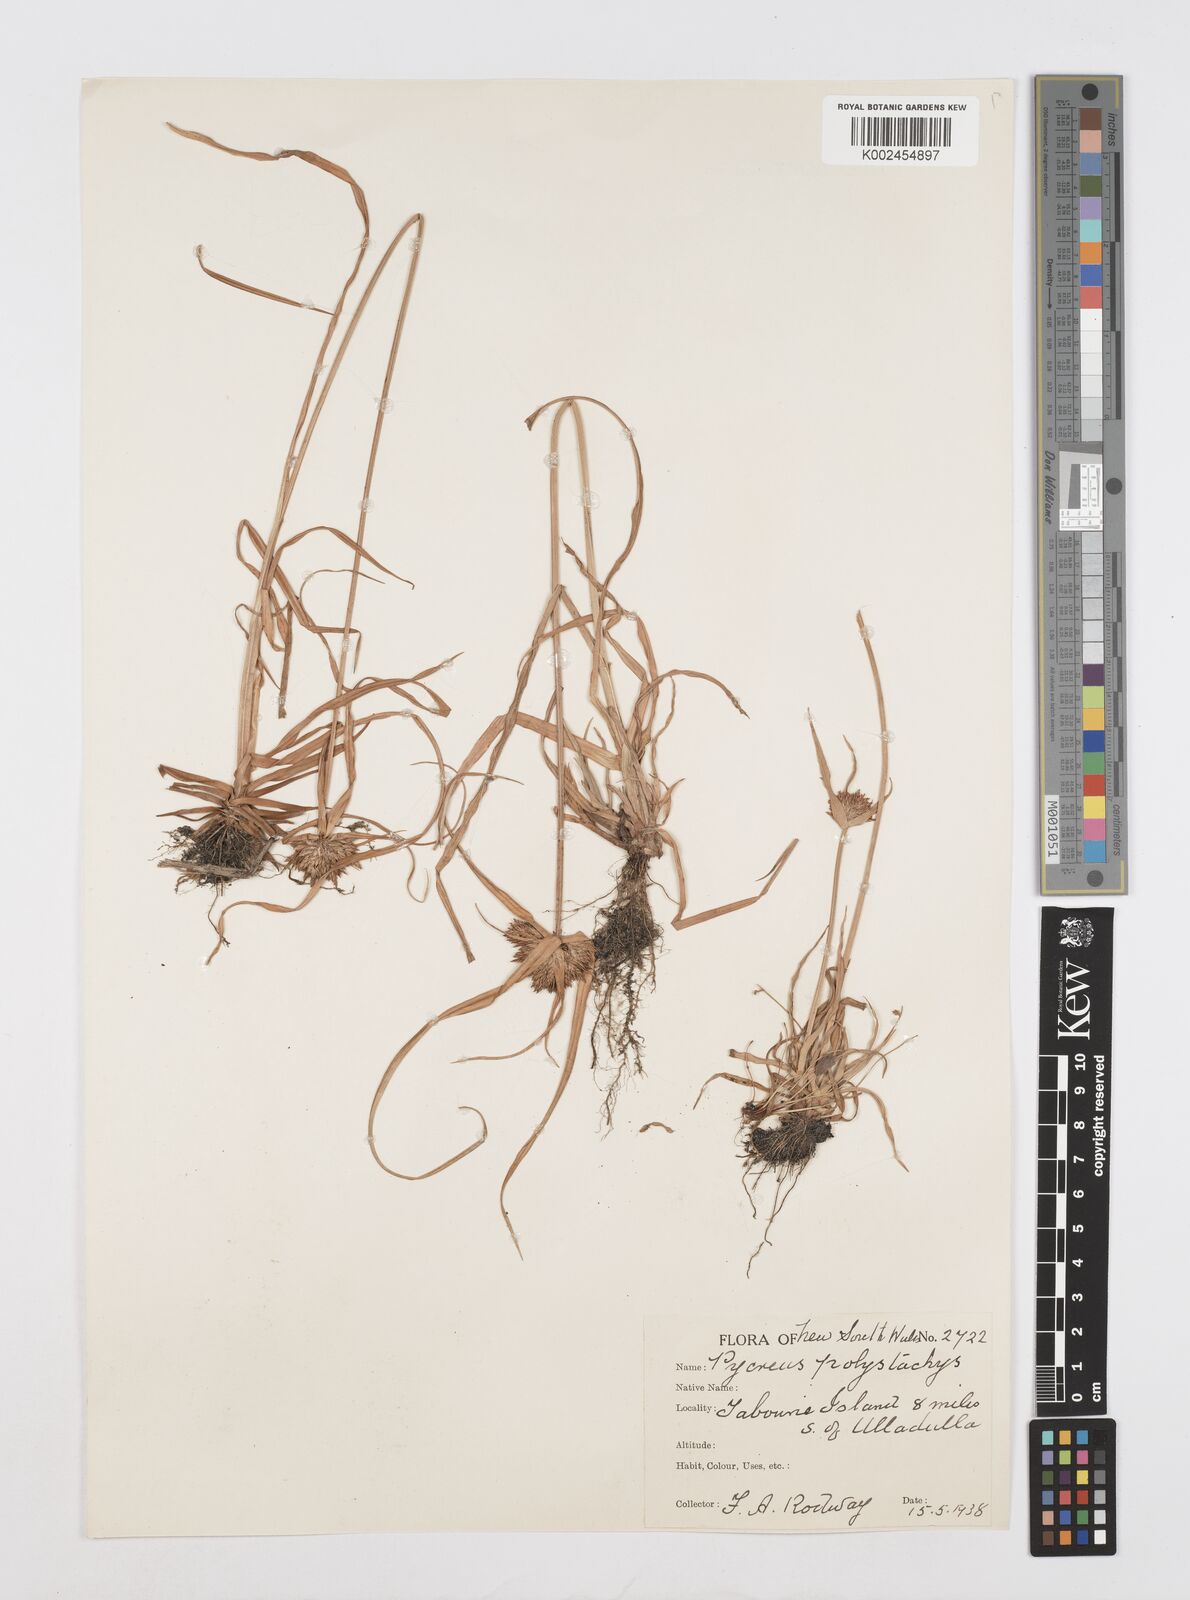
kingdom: Plantae
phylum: Tracheophyta
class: Liliopsida
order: Poales
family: Cyperaceae
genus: Cyperus
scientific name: Cyperus polystachyos
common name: Bunchy flat sedge
